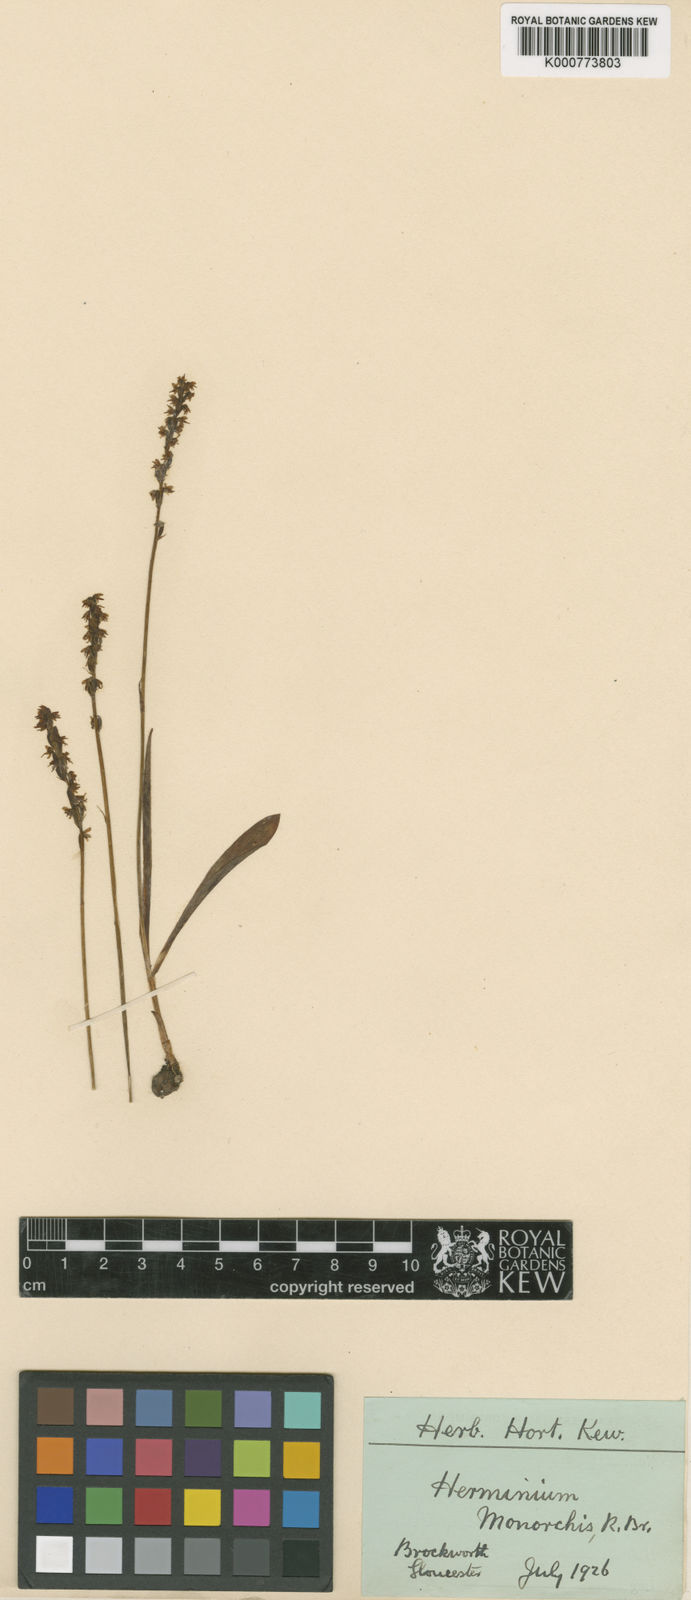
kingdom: Plantae
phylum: Tracheophyta
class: Liliopsida
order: Asparagales
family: Orchidaceae
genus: Herminium
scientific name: Herminium monorchis
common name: Musk orchid
